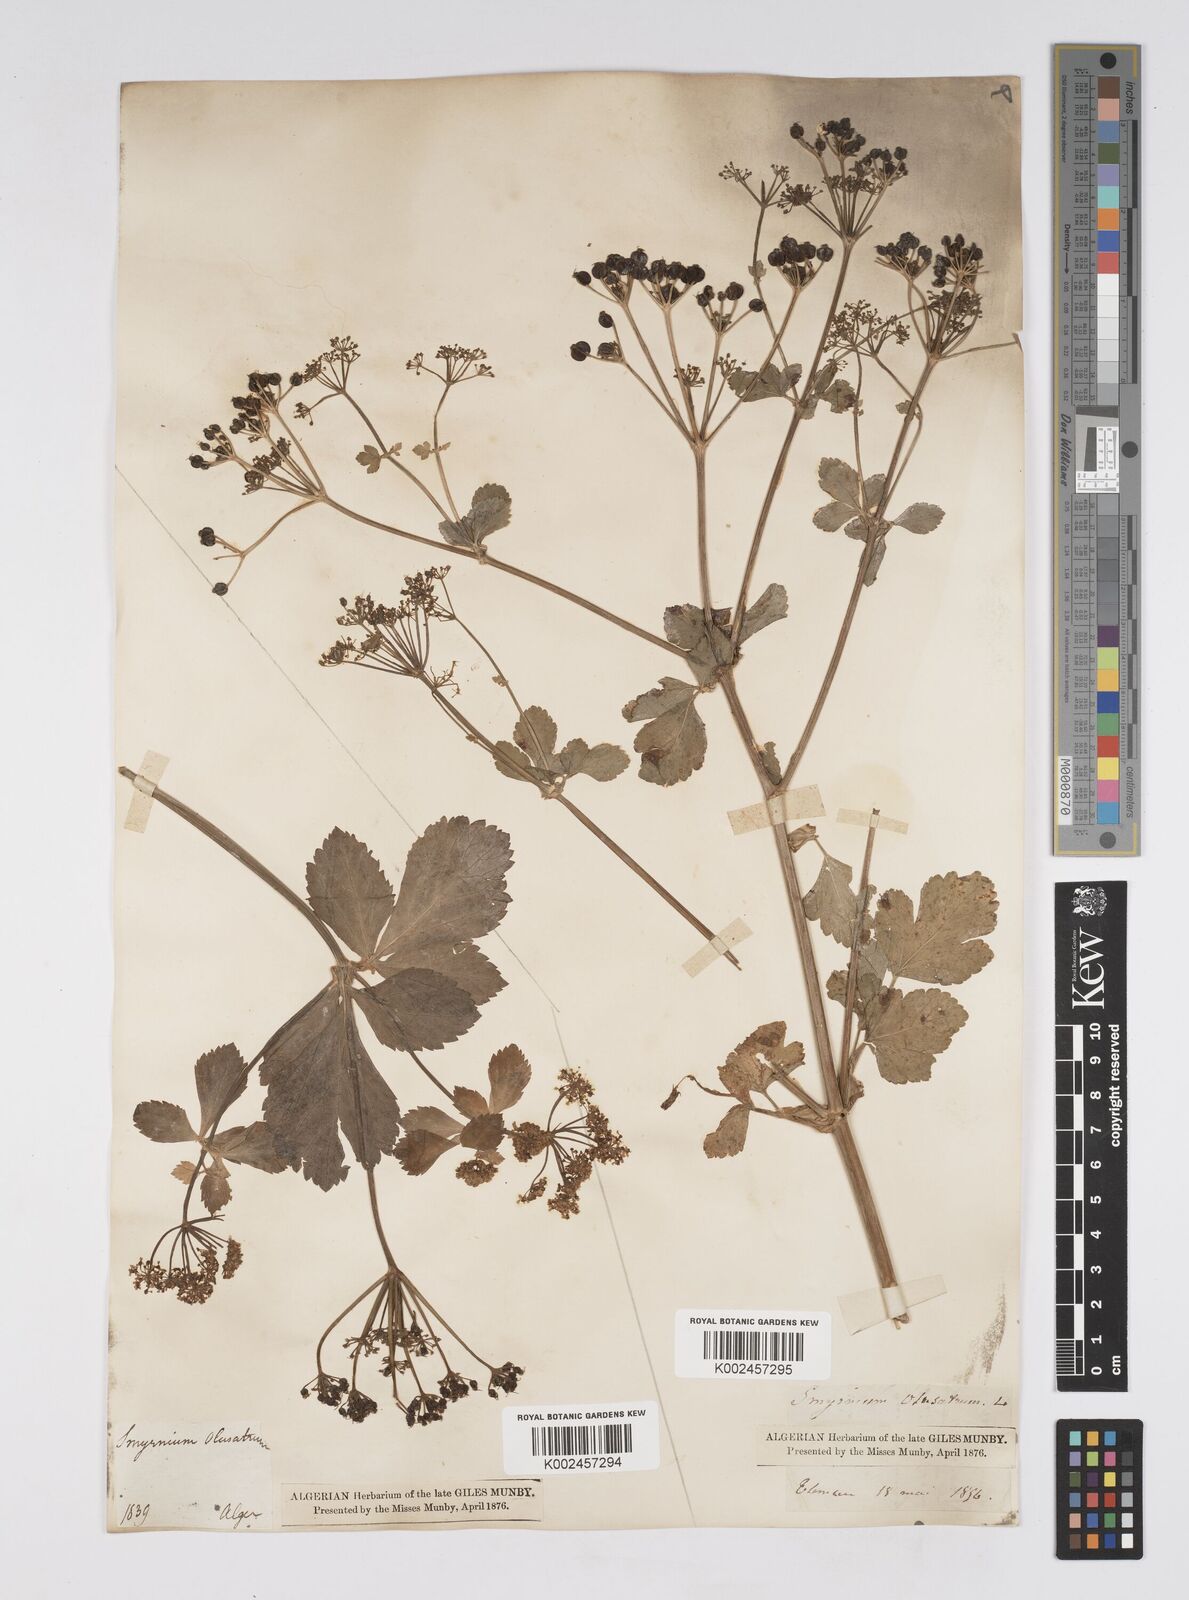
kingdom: Plantae
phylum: Tracheophyta
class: Magnoliopsida
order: Apiales
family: Apiaceae
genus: Smyrnium
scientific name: Smyrnium olusatrum
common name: Alexanders
